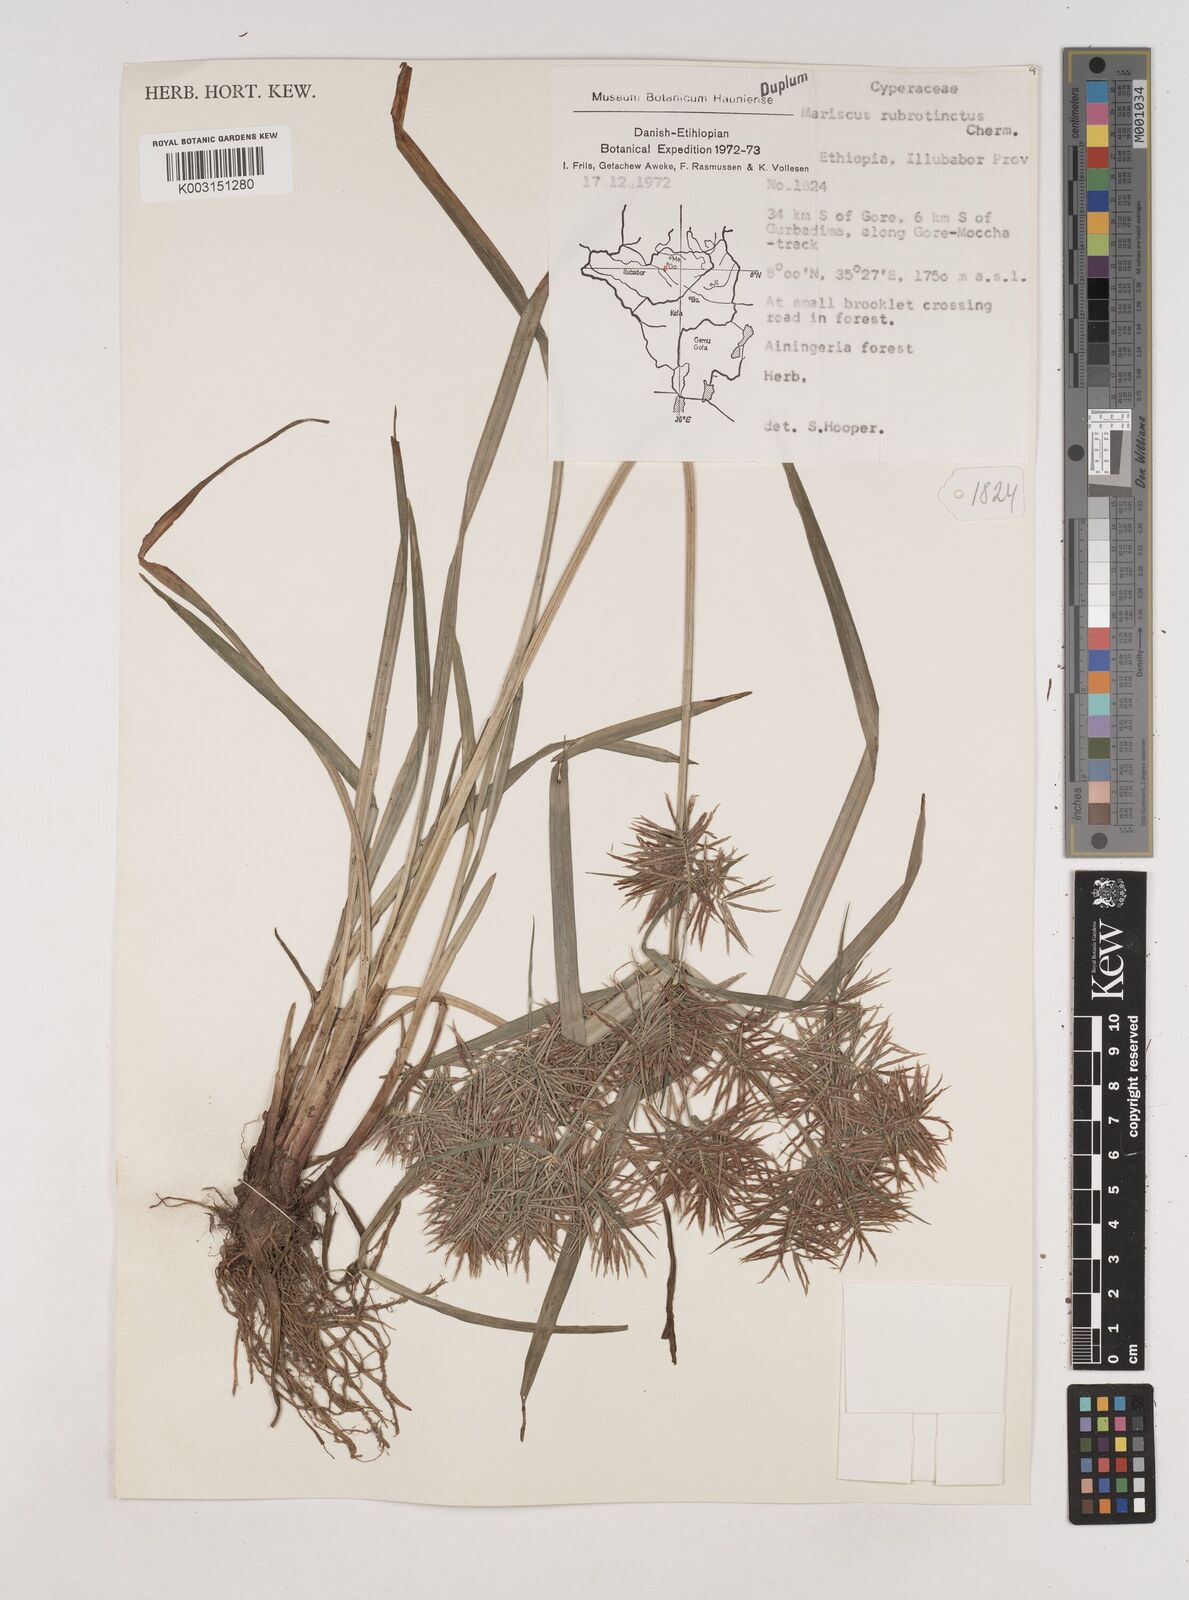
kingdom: Plantae
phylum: Tracheophyta
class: Liliopsida
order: Poales
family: Cyperaceae
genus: Cyperus
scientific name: Cyperus distans
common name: Slender cyperus
